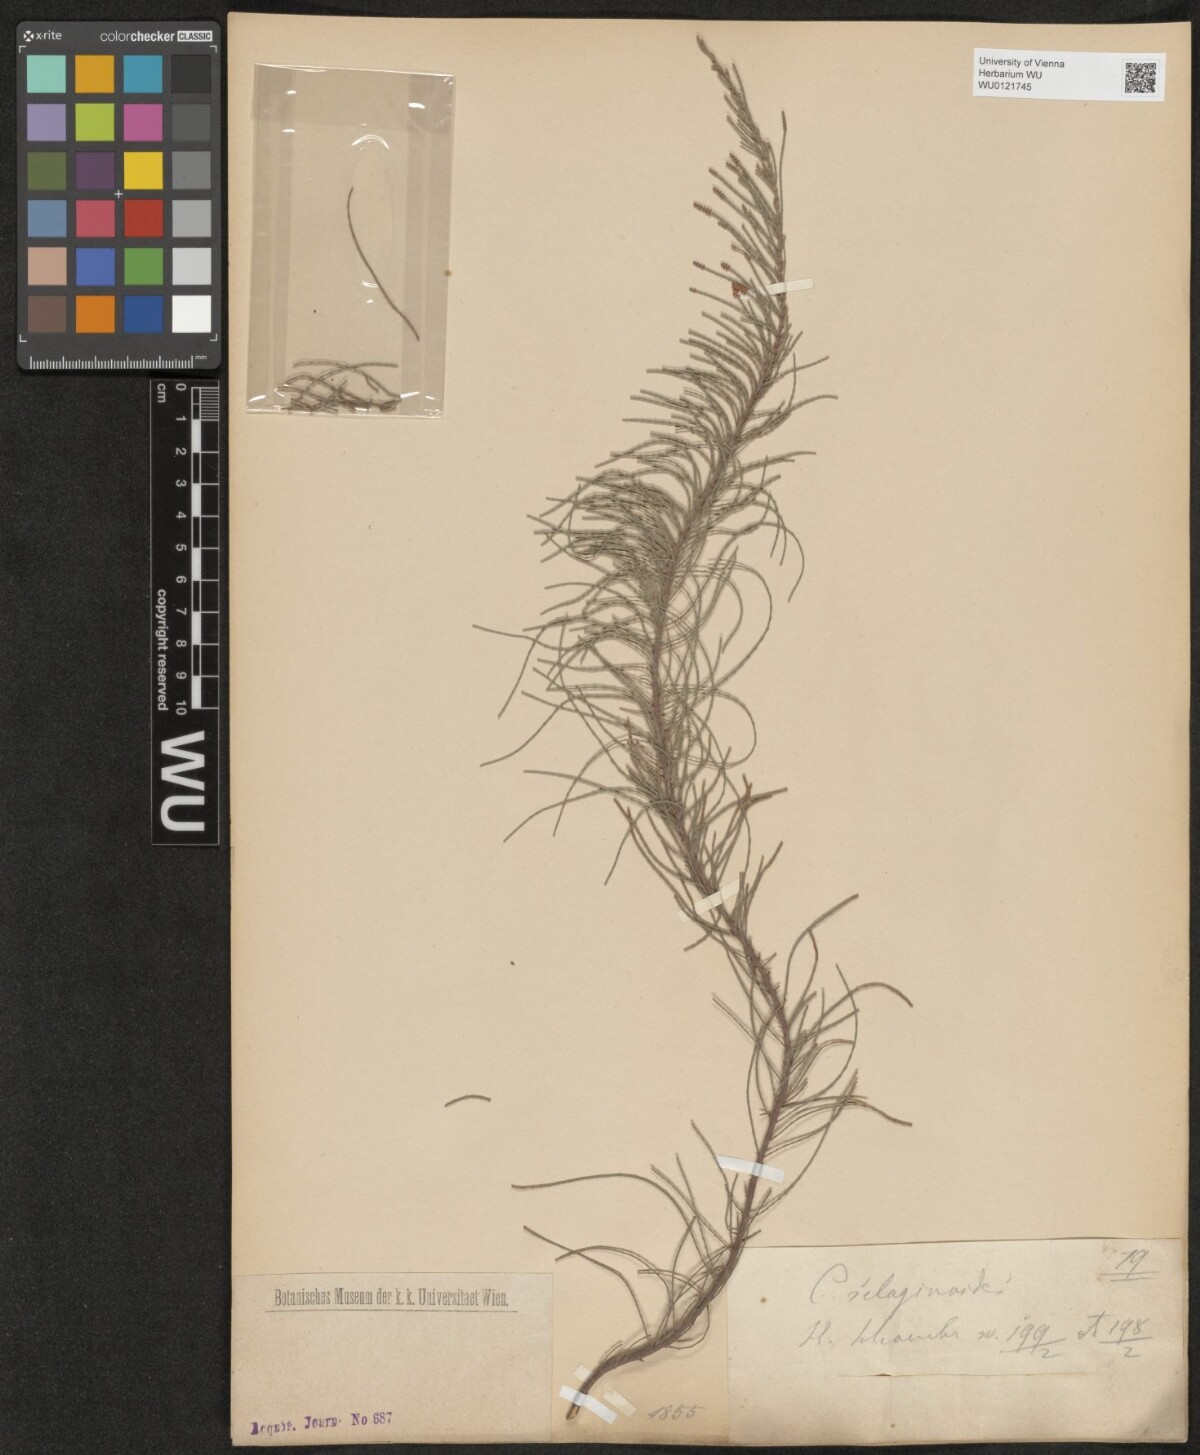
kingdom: Plantae
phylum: Tracheophyta
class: Magnoliopsida
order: Fagales
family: Casuarinaceae
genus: Casuarina
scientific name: Casuarina
